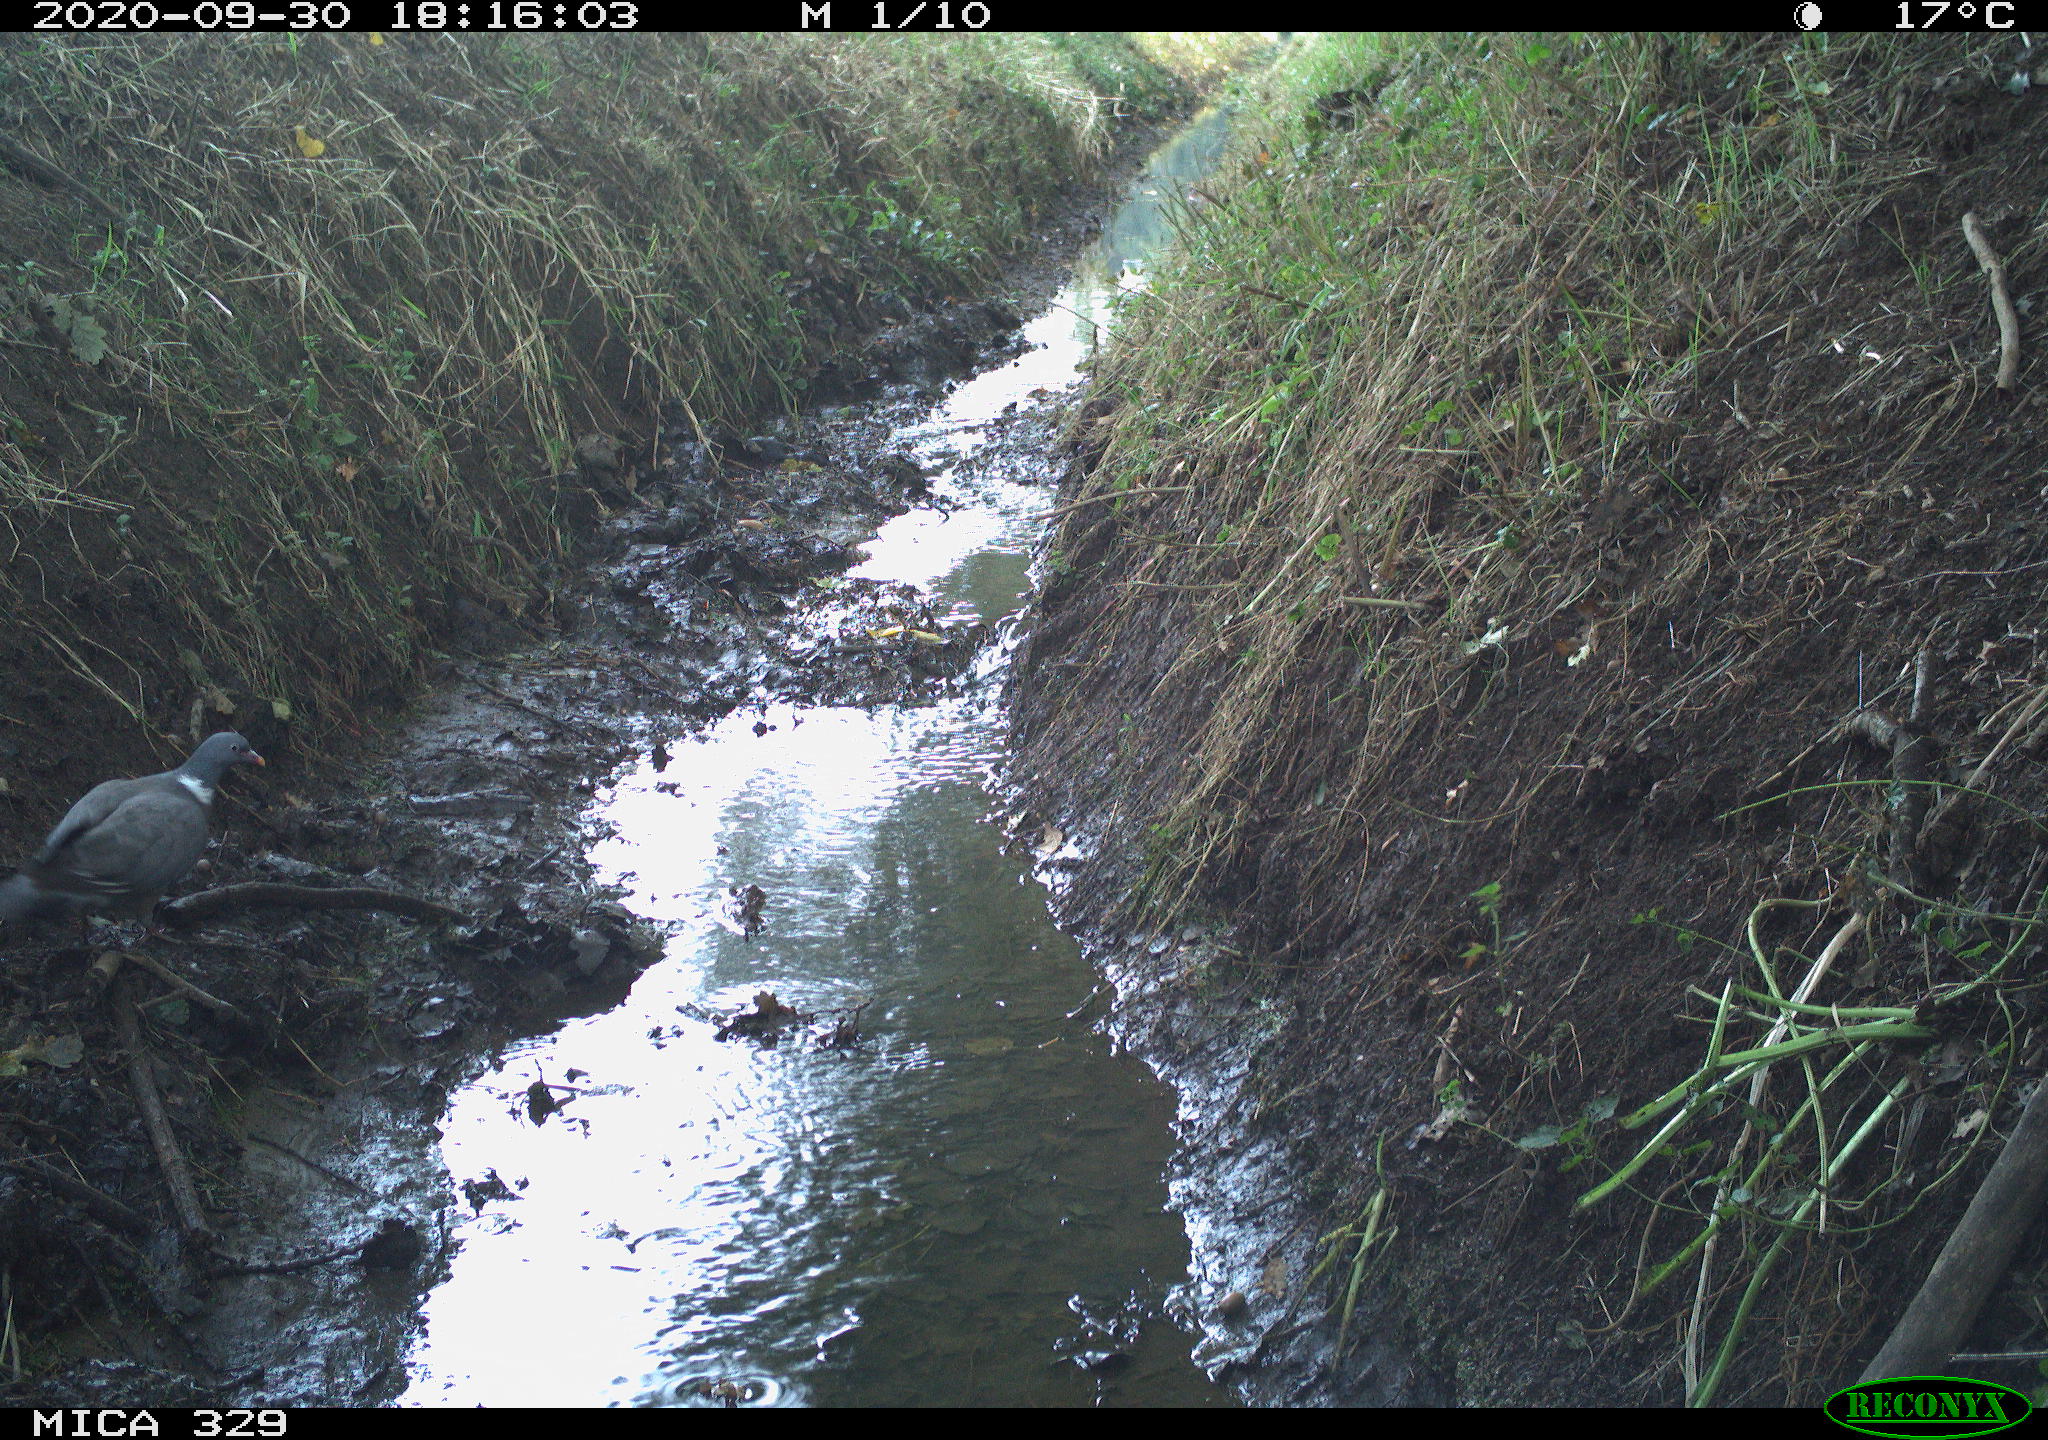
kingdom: Animalia
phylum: Chordata
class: Aves
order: Columbiformes
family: Columbidae
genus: Columba
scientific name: Columba palumbus
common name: Common wood pigeon
